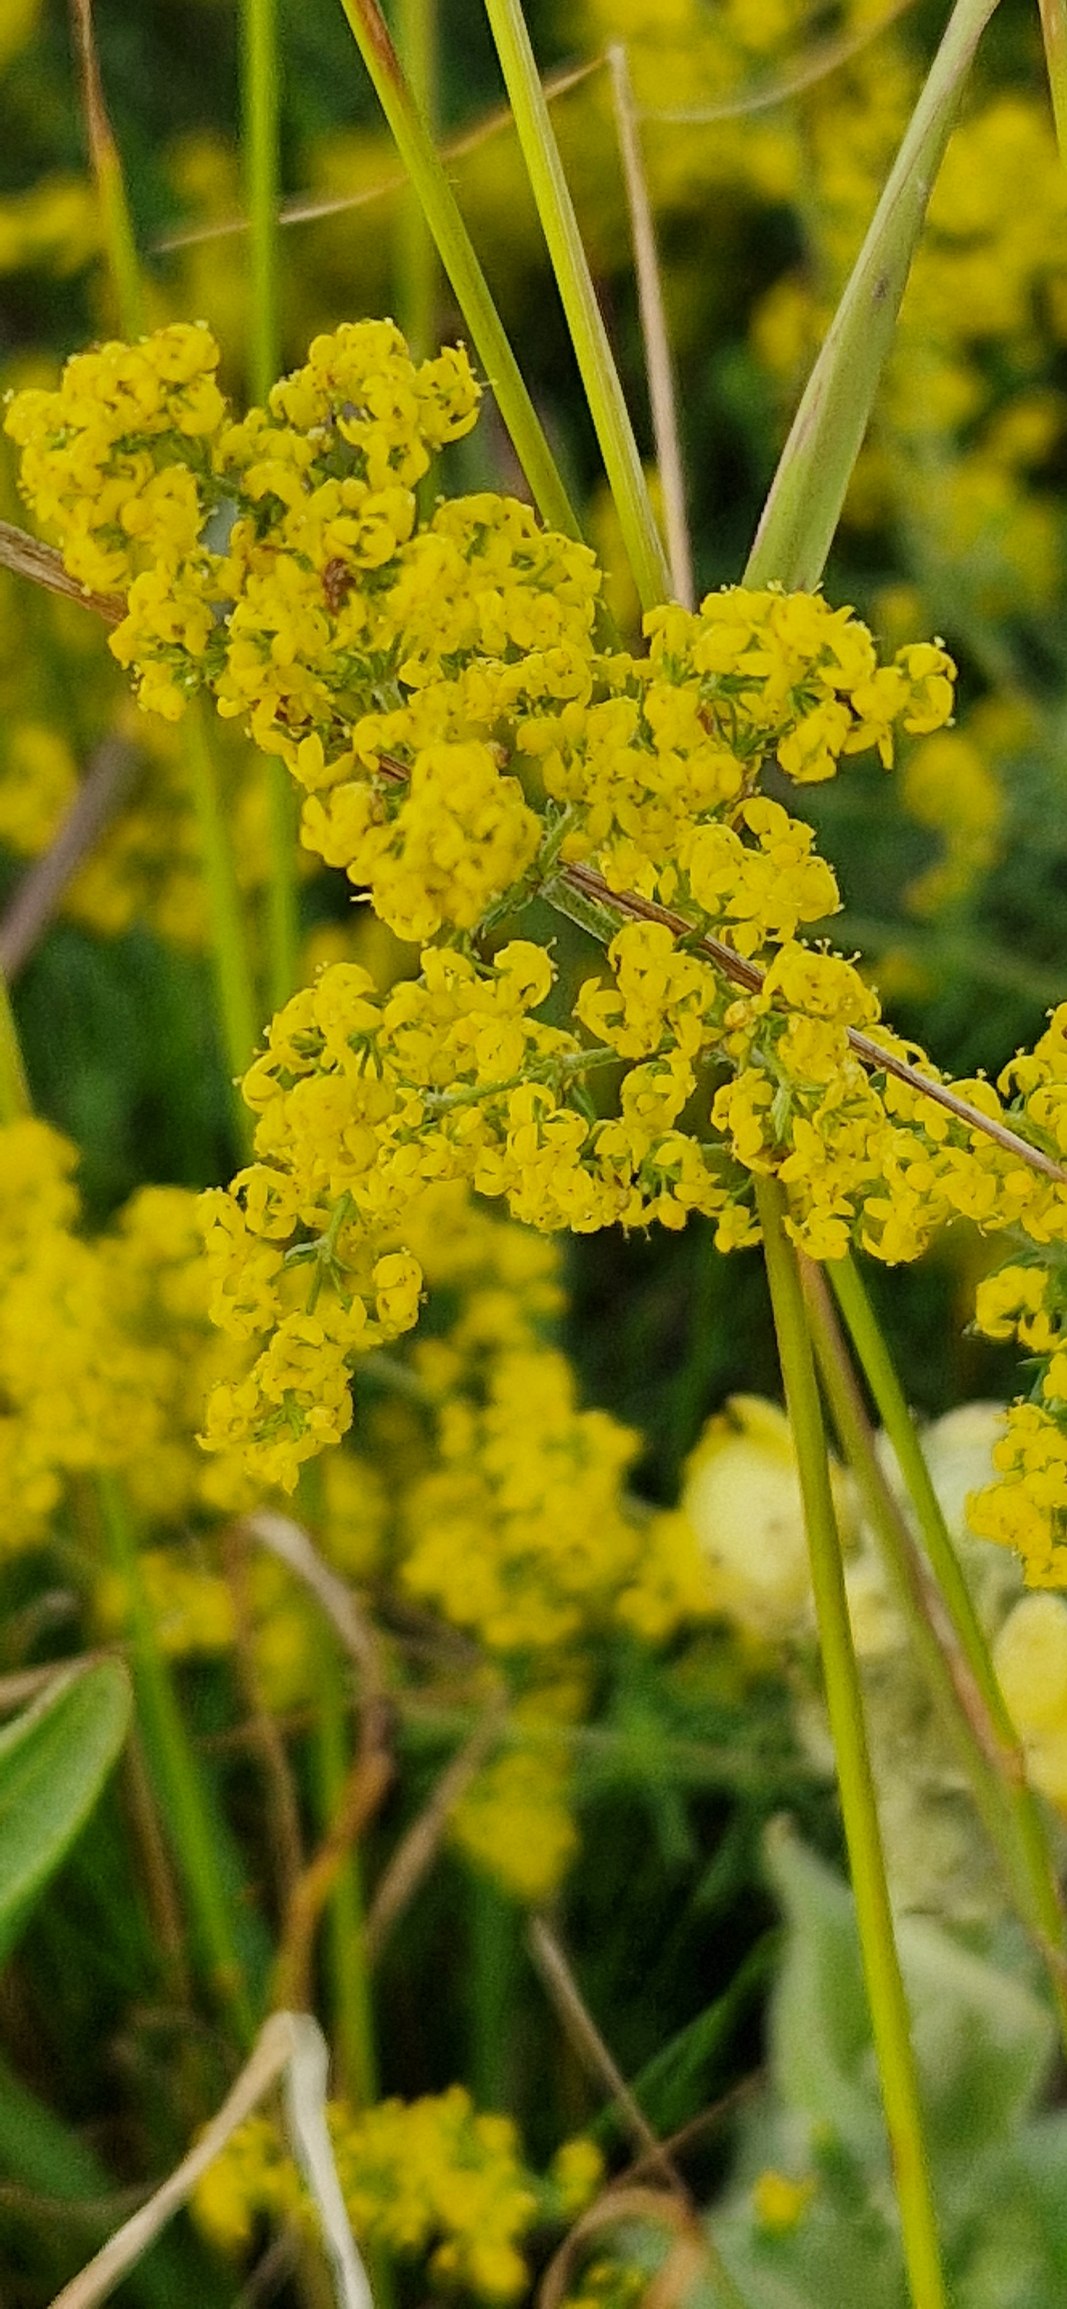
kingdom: Plantae
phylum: Tracheophyta
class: Magnoliopsida
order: Gentianales
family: Rubiaceae
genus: Galium
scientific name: Galium verum
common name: Gul snerre
